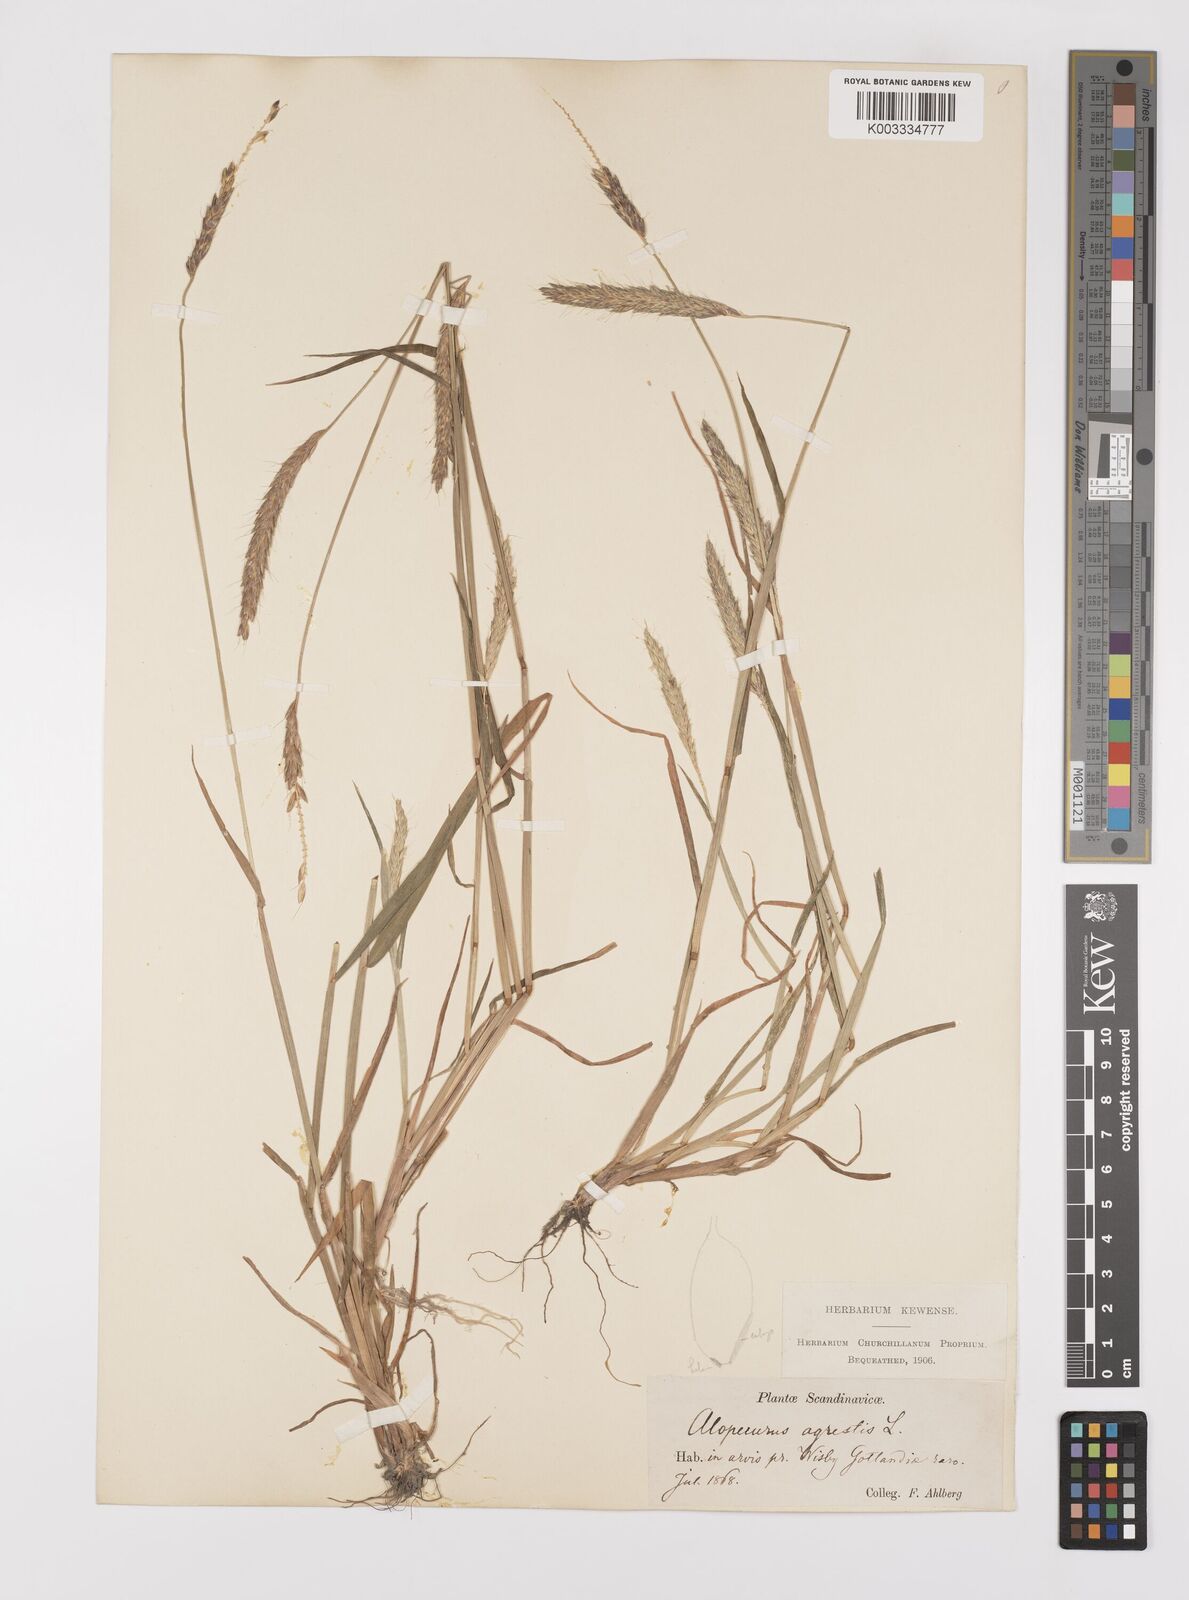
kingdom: Plantae
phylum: Tracheophyta
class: Liliopsida
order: Poales
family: Poaceae
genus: Alopecurus
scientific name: Alopecurus myosuroides
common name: Black-grass
